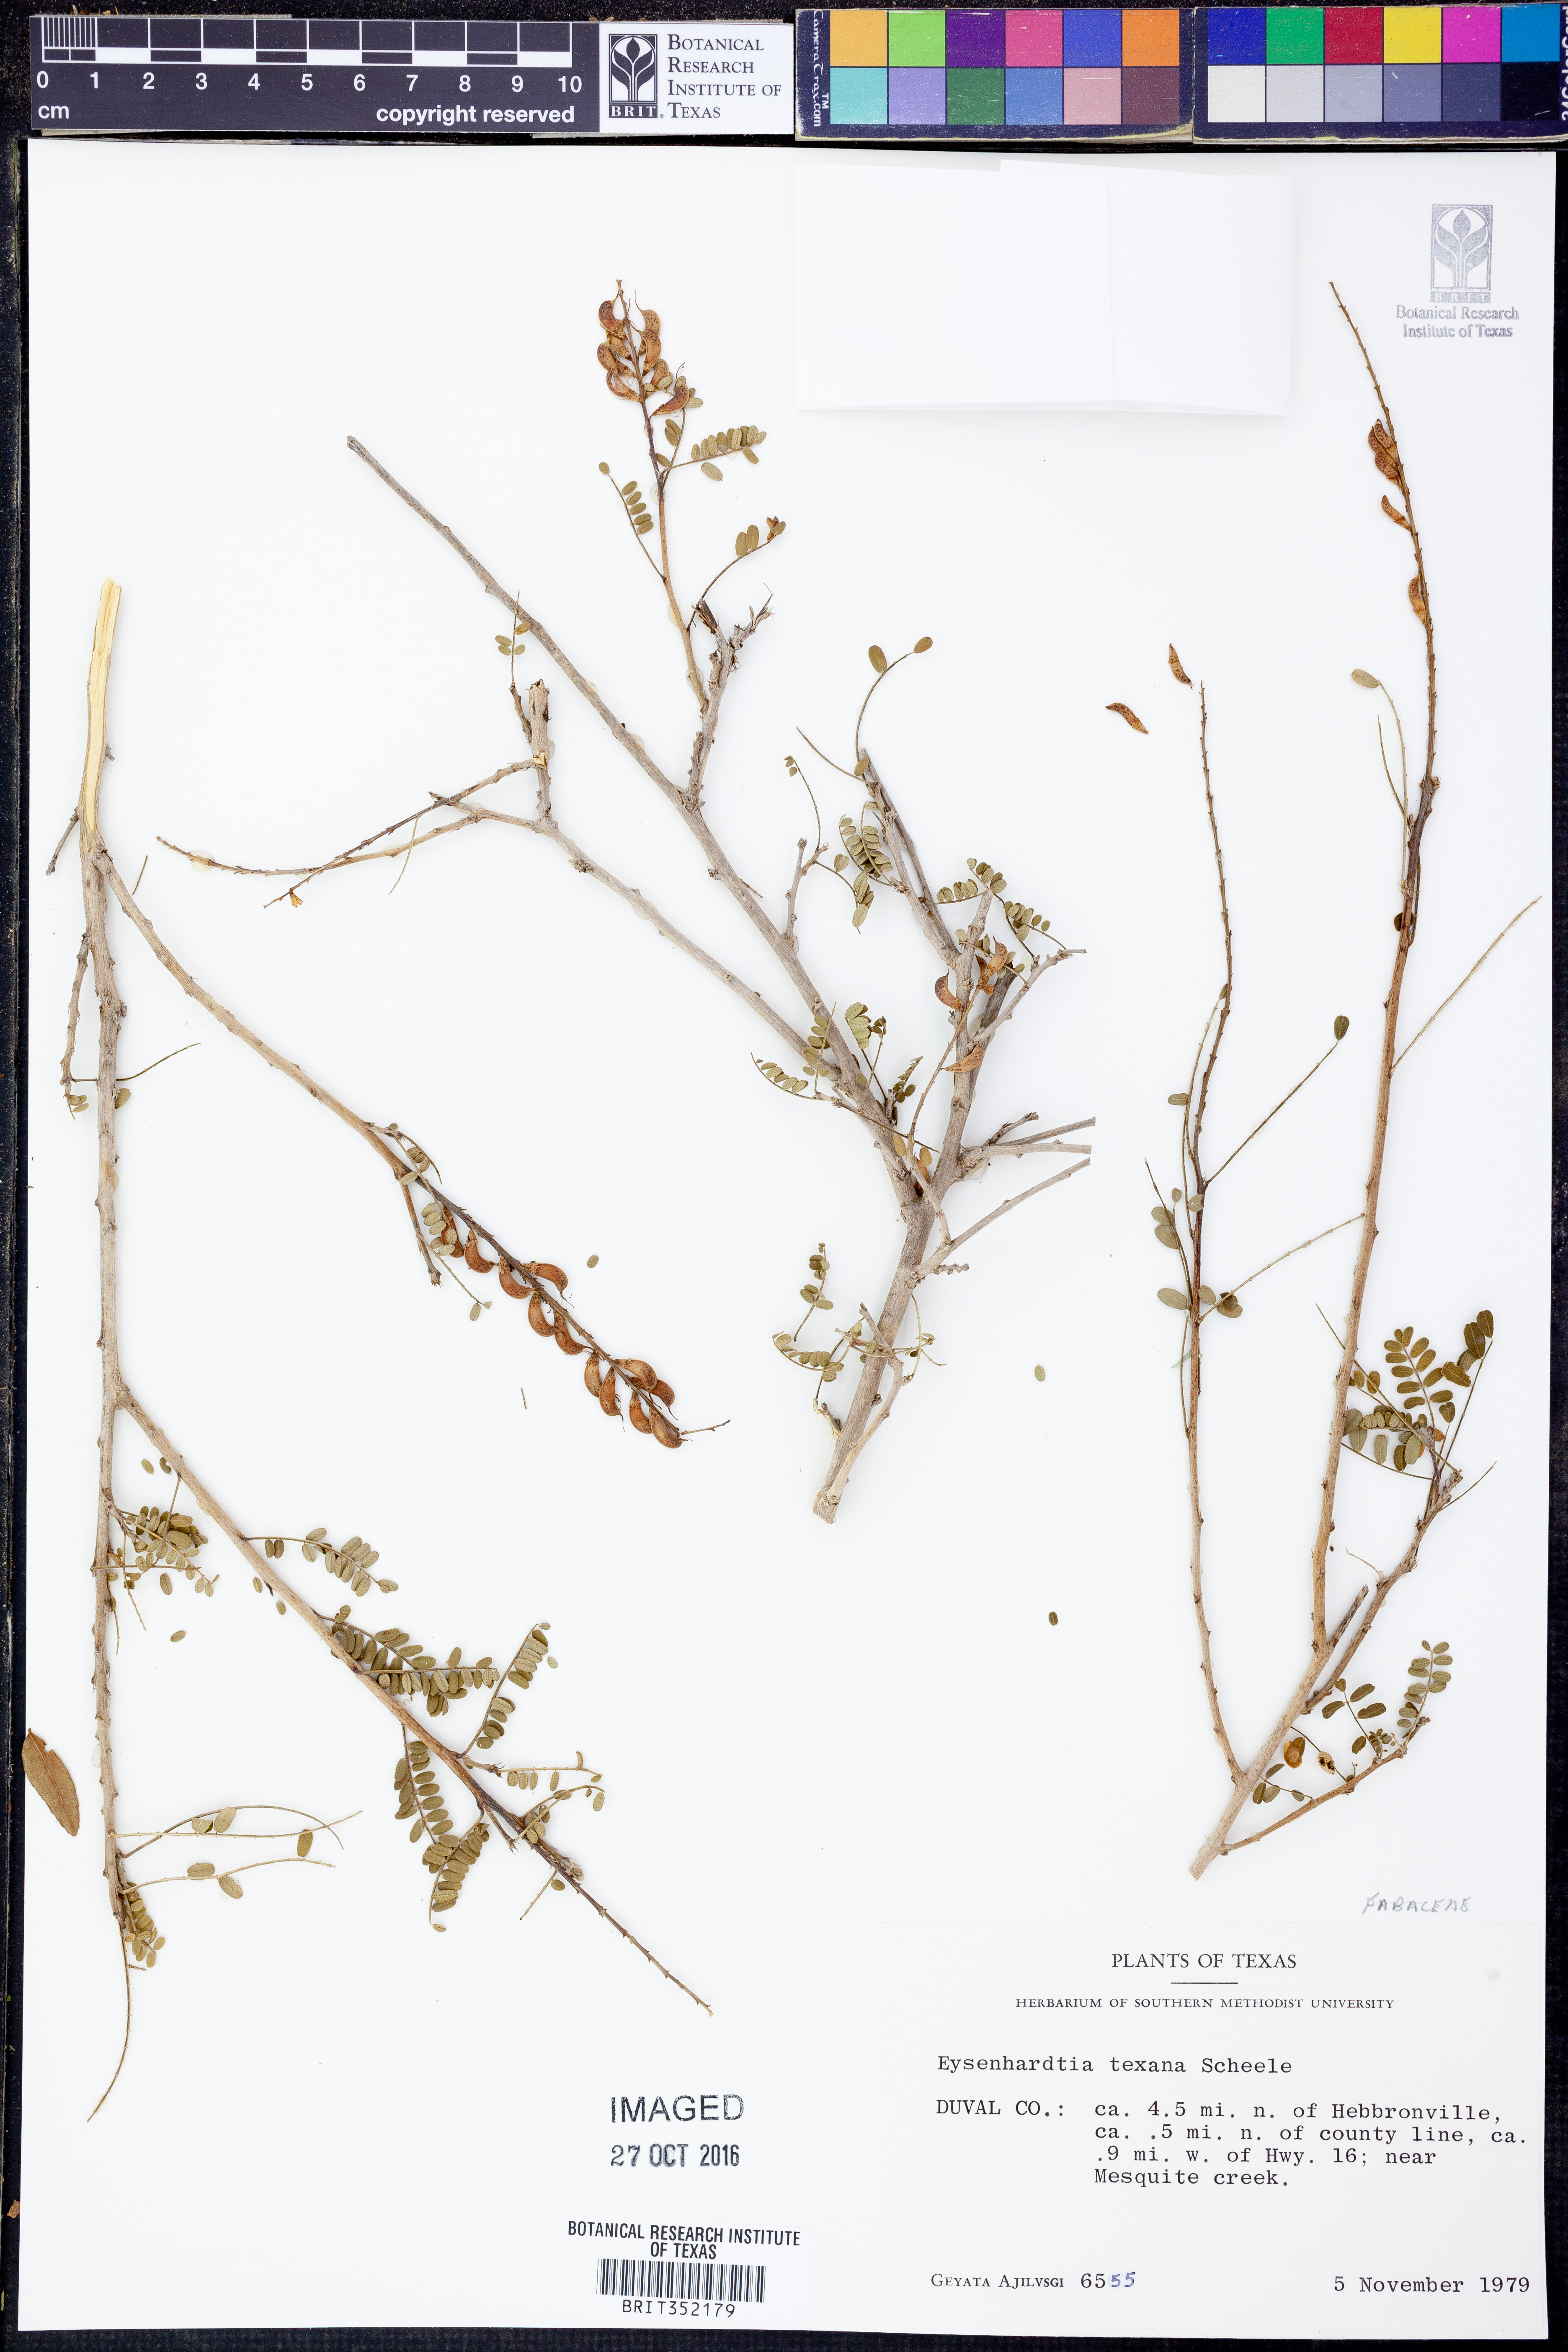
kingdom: Plantae
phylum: Tracheophyta
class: Magnoliopsida
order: Fabales
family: Fabaceae
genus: Eysenhardtia
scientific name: Eysenhardtia texana
